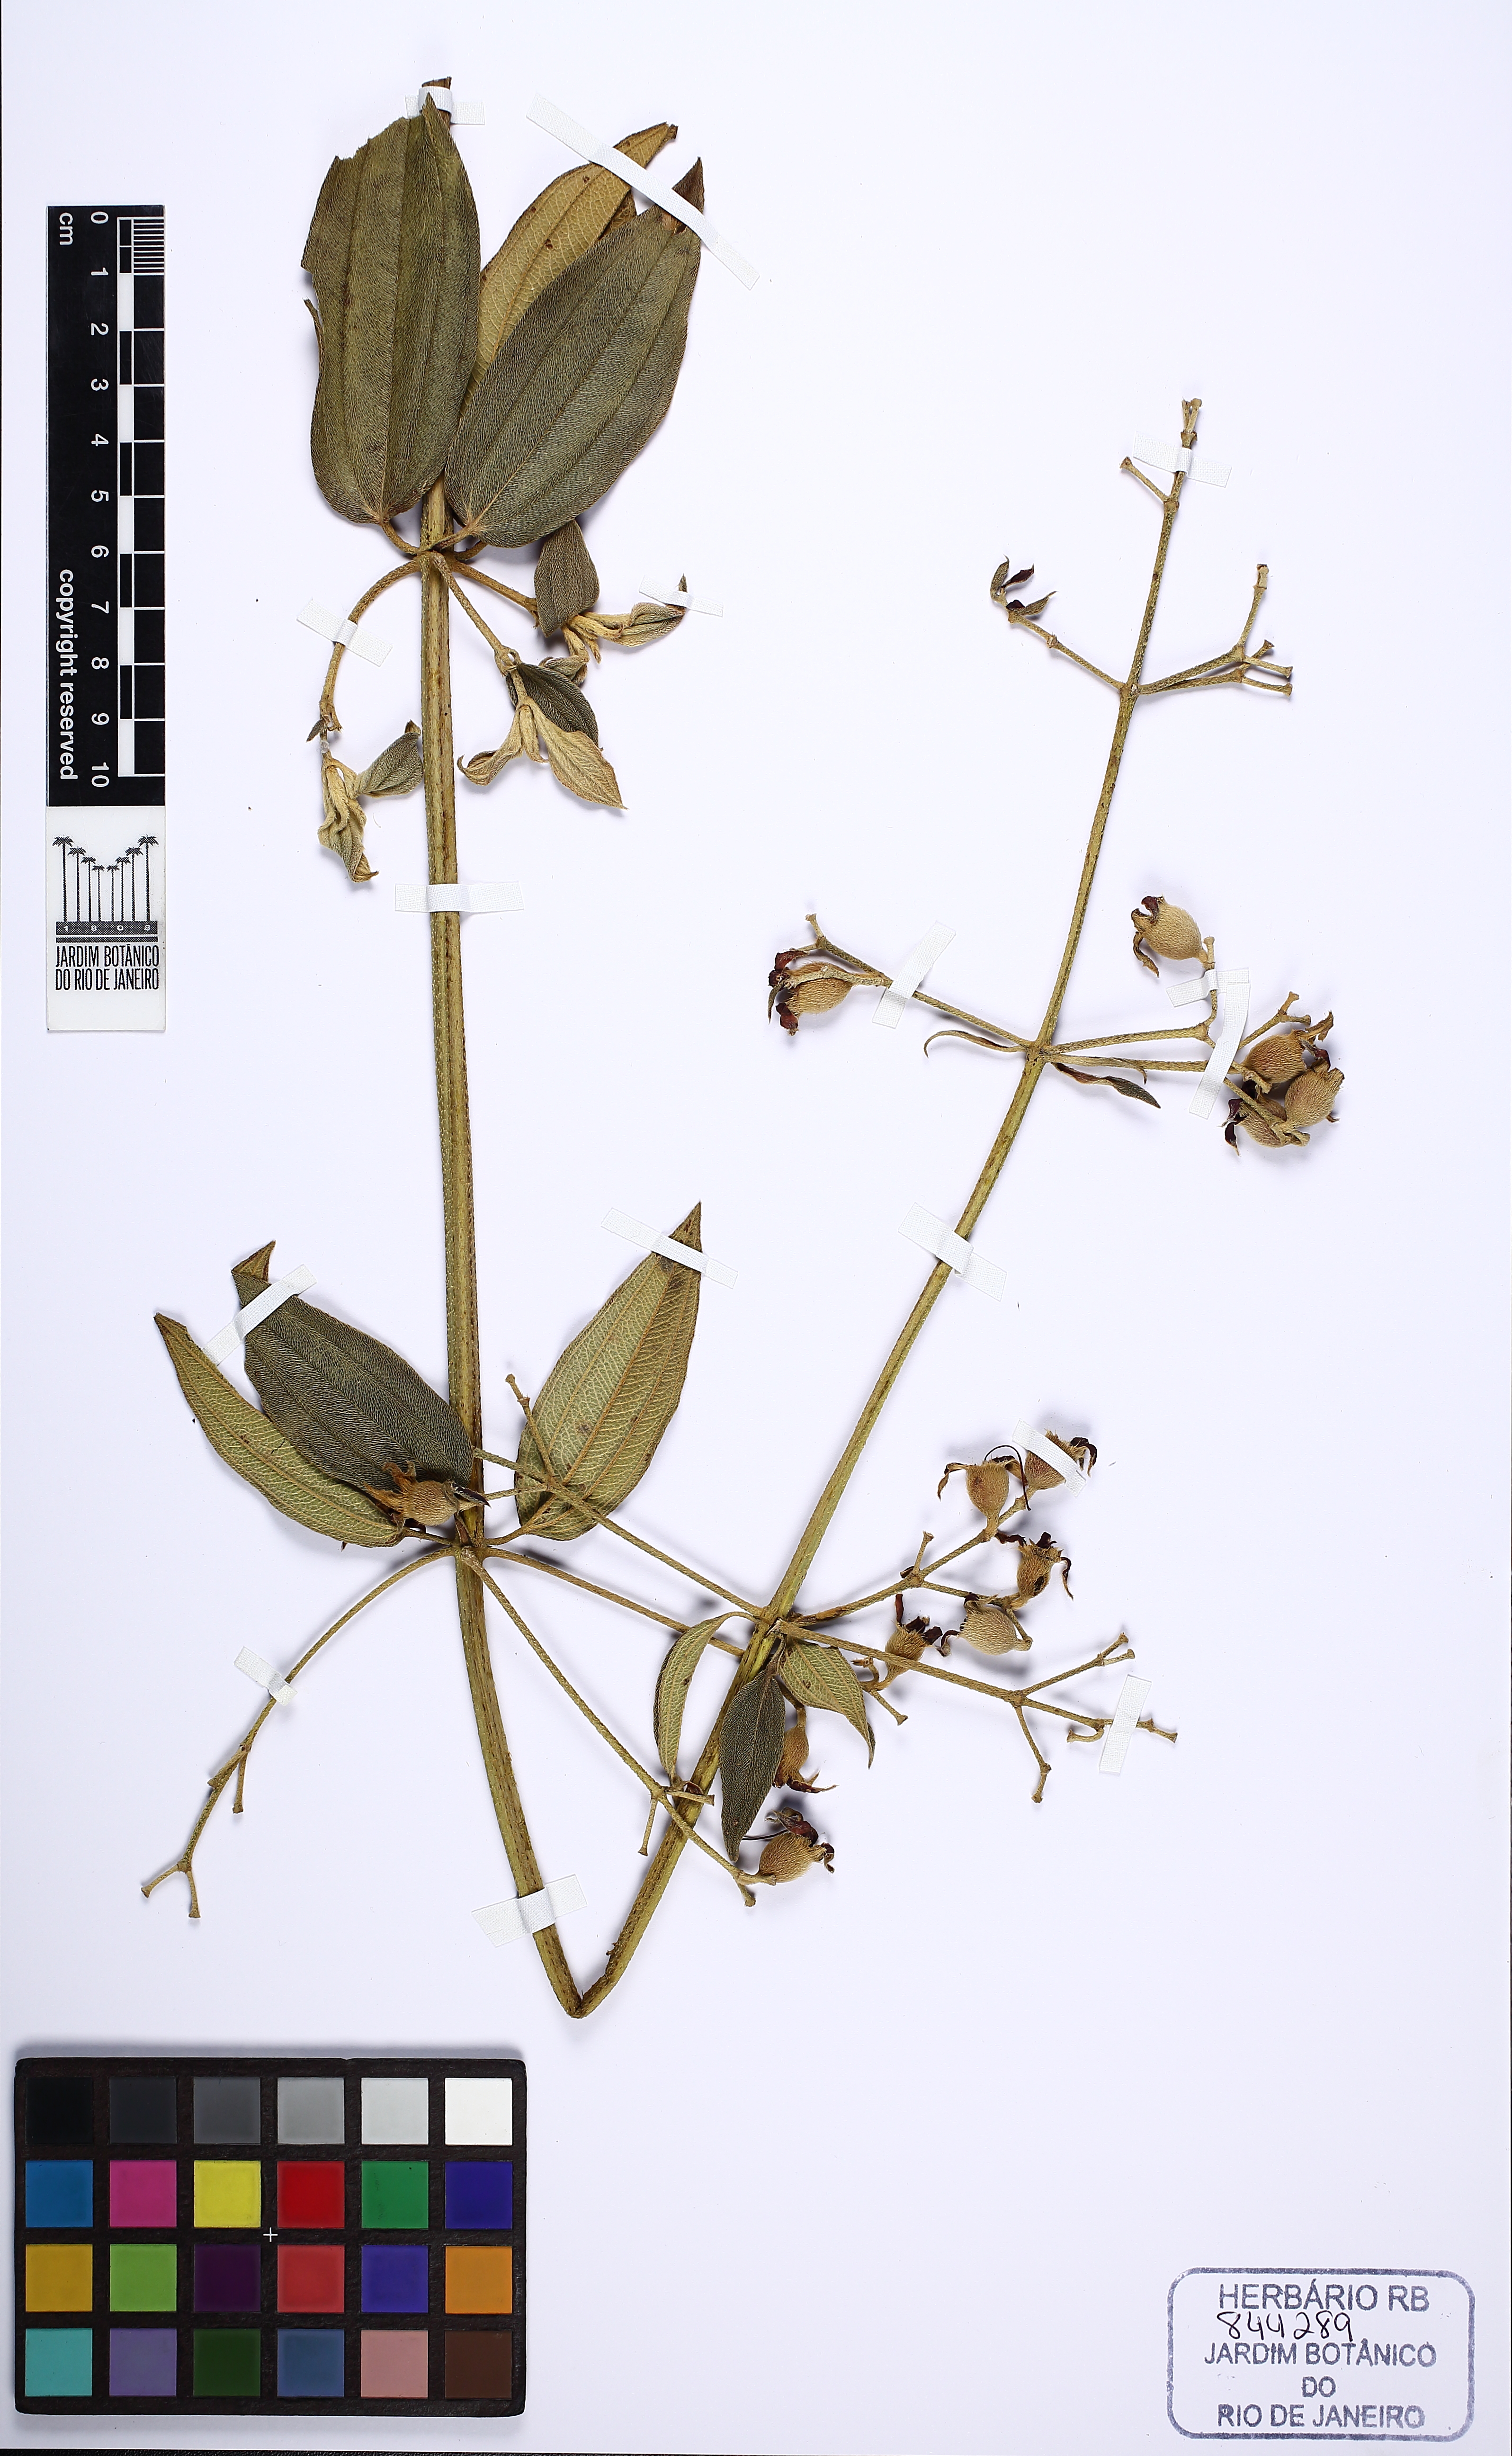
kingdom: Plantae
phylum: Tracheophyta
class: Magnoliopsida
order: Myrtales
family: Melastomataceae
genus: Pleroma
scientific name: Pleroma laevicaule
